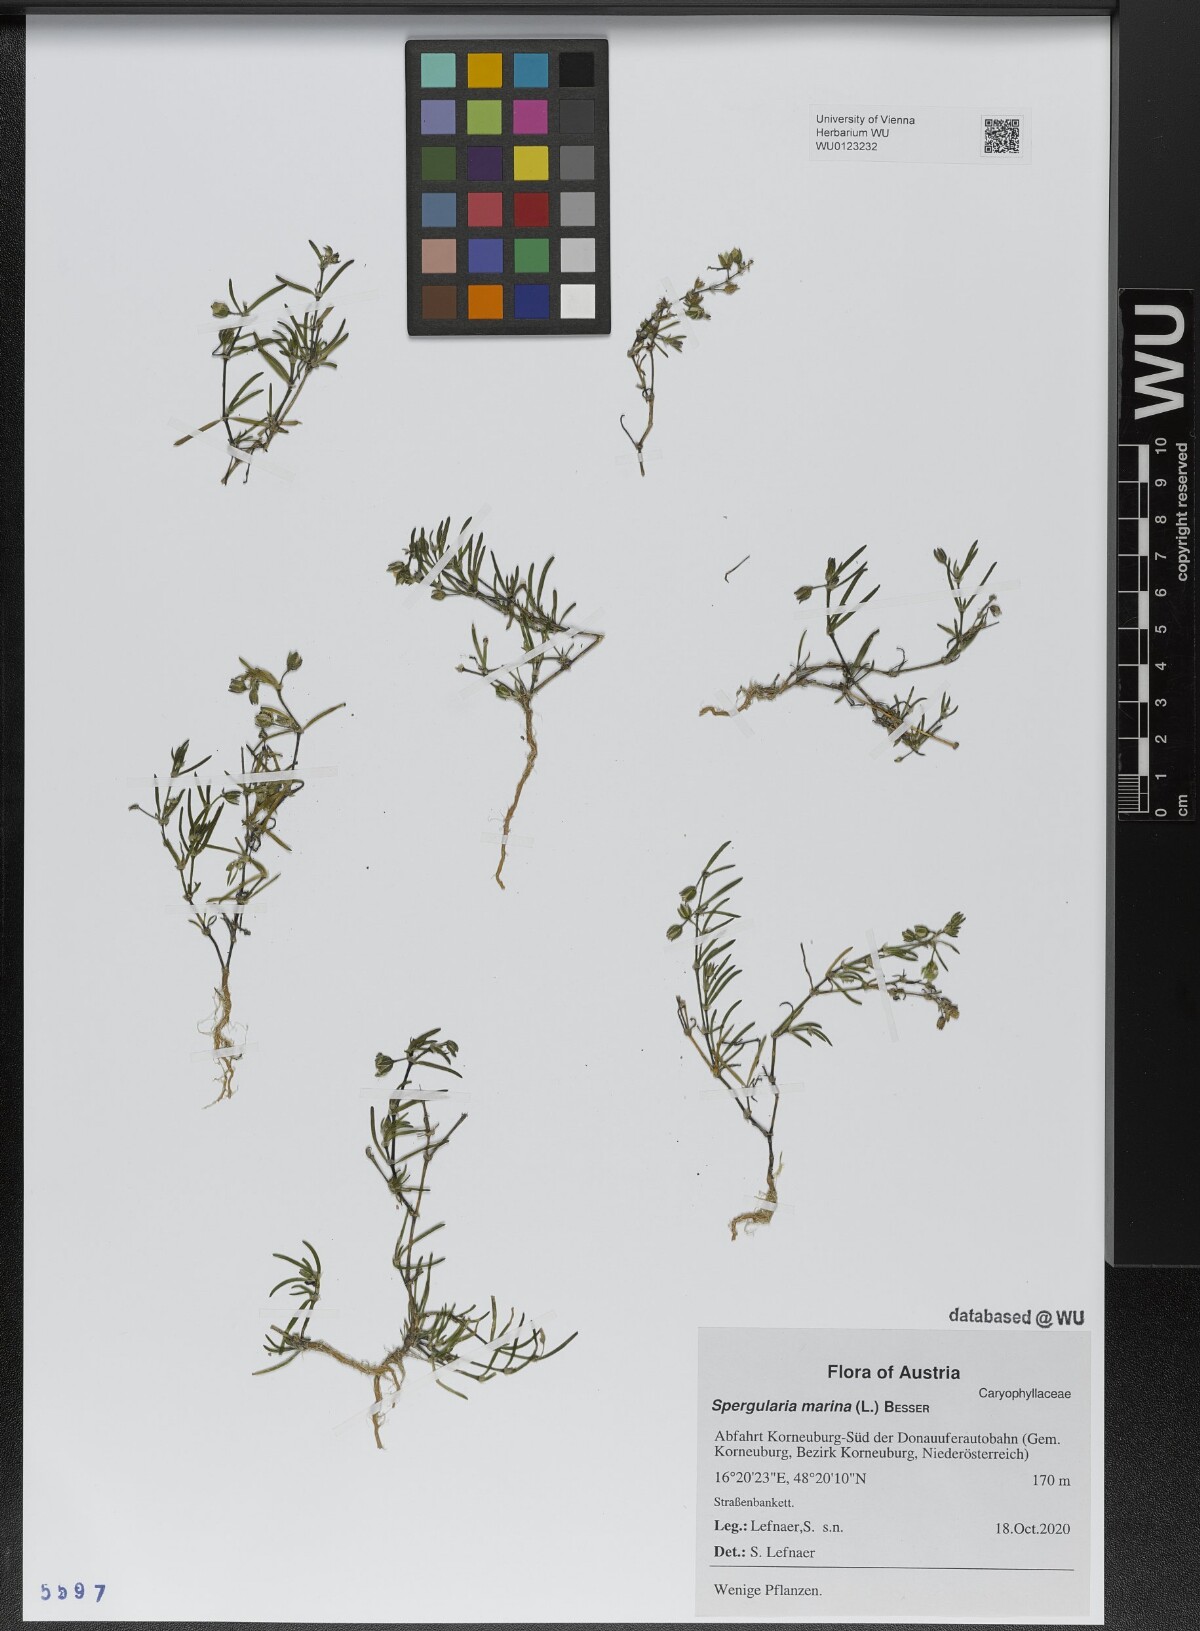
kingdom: Plantae
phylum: Tracheophyta
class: Magnoliopsida
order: Caryophyllales
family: Caryophyllaceae
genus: Spergularia
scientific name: Spergularia marina
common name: Lesser sea-spurrey
